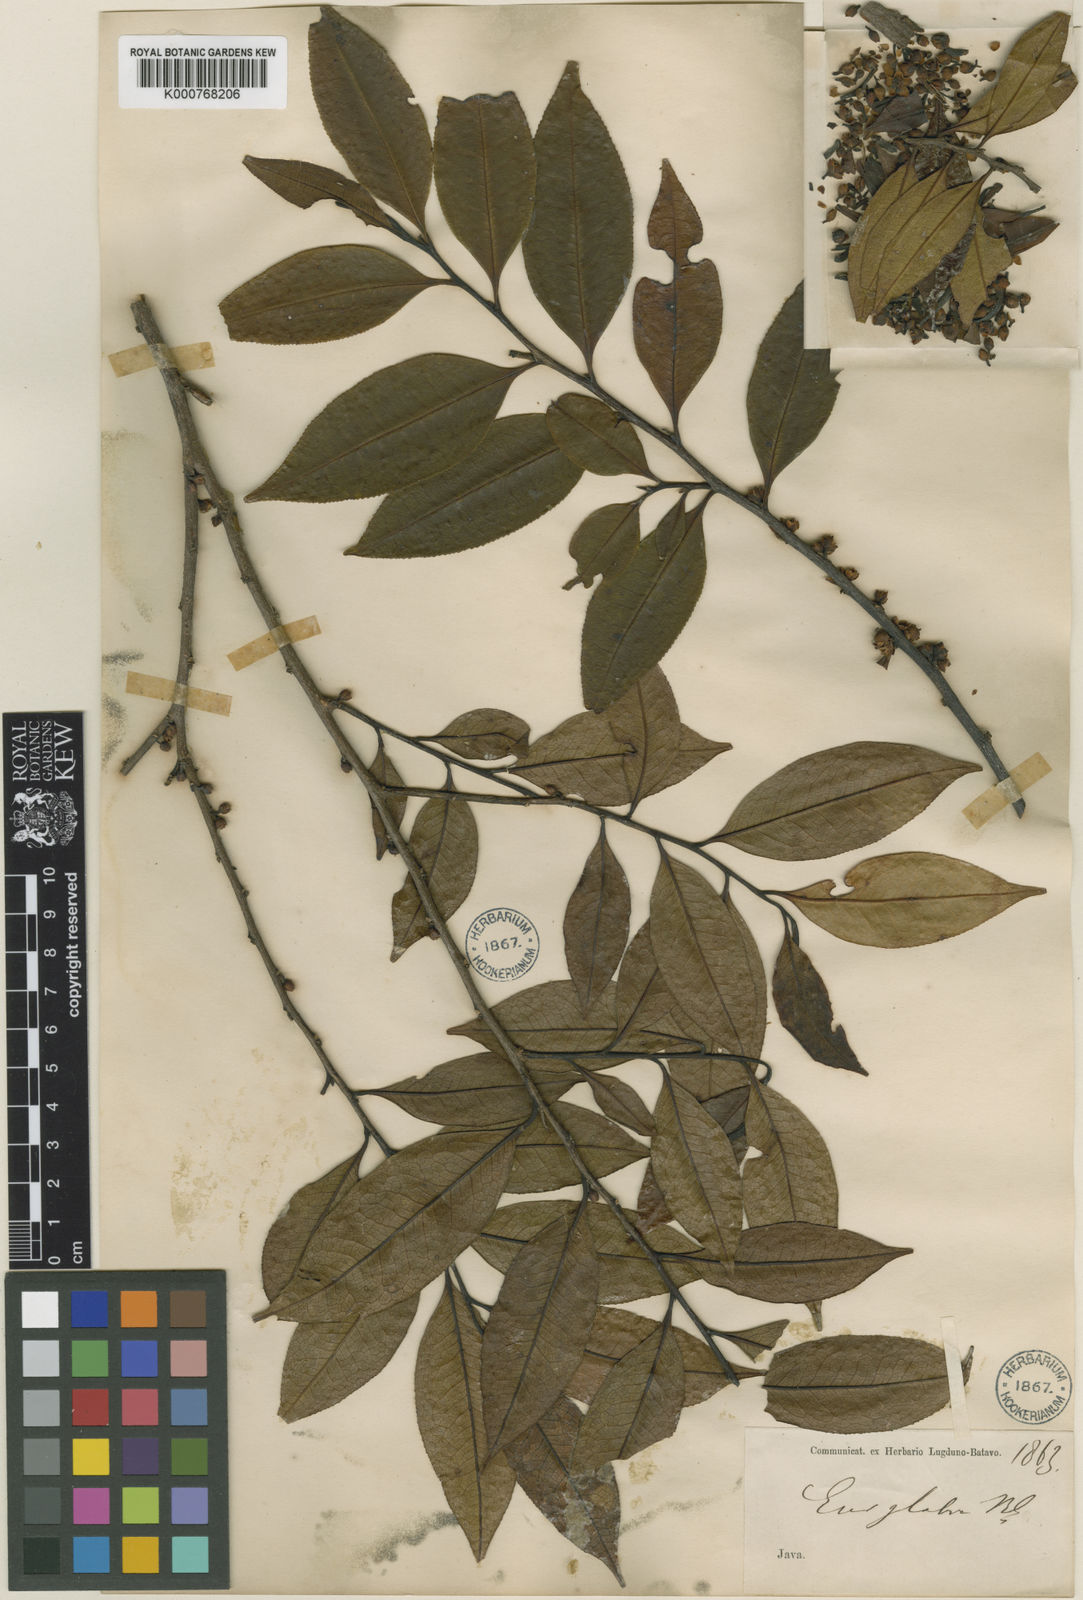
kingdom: Plantae
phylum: Tracheophyta
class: Magnoliopsida
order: Ericales
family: Pentaphylacaceae
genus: Eurya
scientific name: Eurya acuminata
